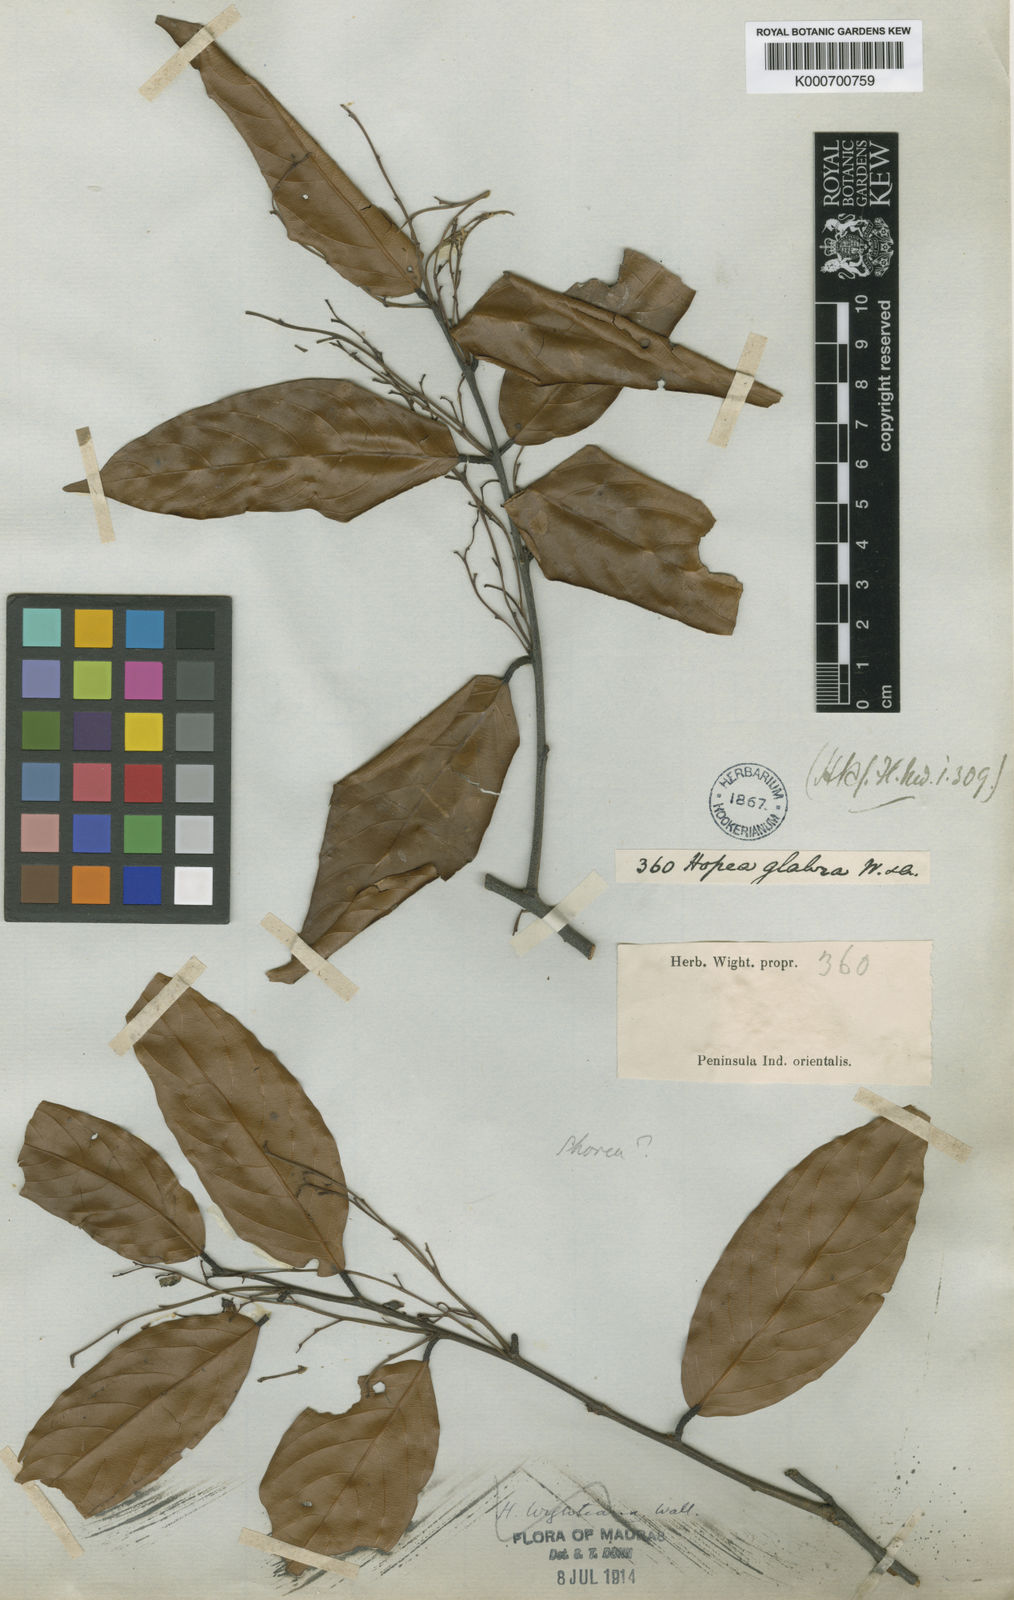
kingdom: Plantae
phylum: Tracheophyta
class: Magnoliopsida
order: Malvales
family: Dipterocarpaceae
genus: Hopea
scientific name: Hopea glabra
